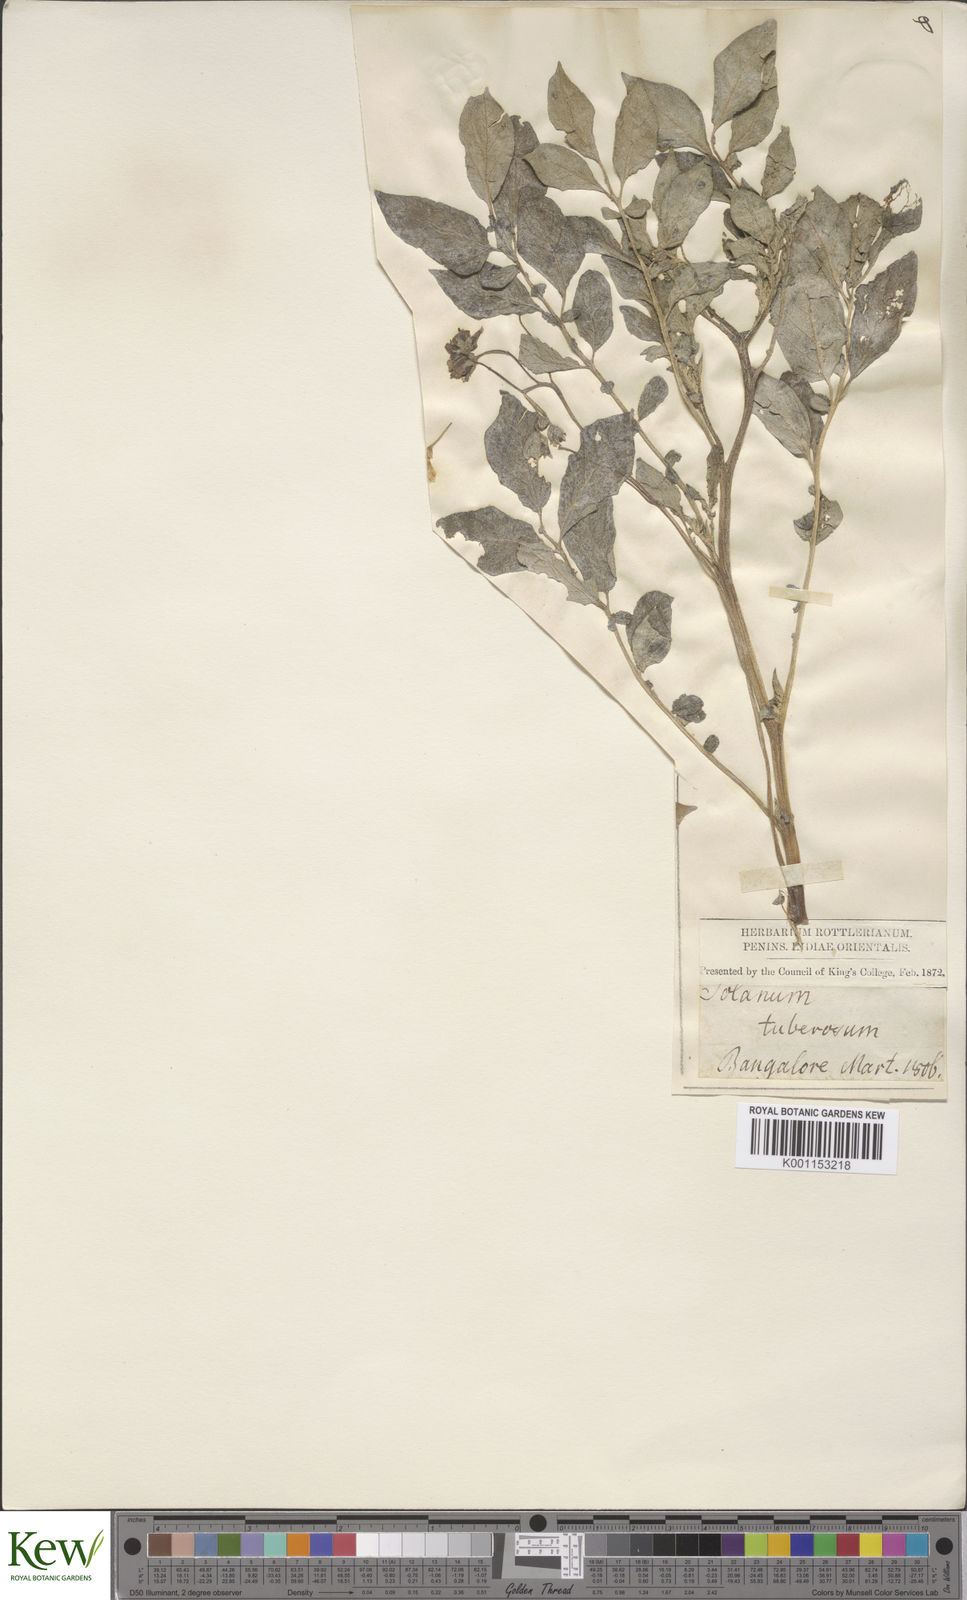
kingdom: Plantae
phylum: Tracheophyta
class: Magnoliopsida
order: Solanales
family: Solanaceae
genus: Solanum
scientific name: Solanum tuberosum
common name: Potato
